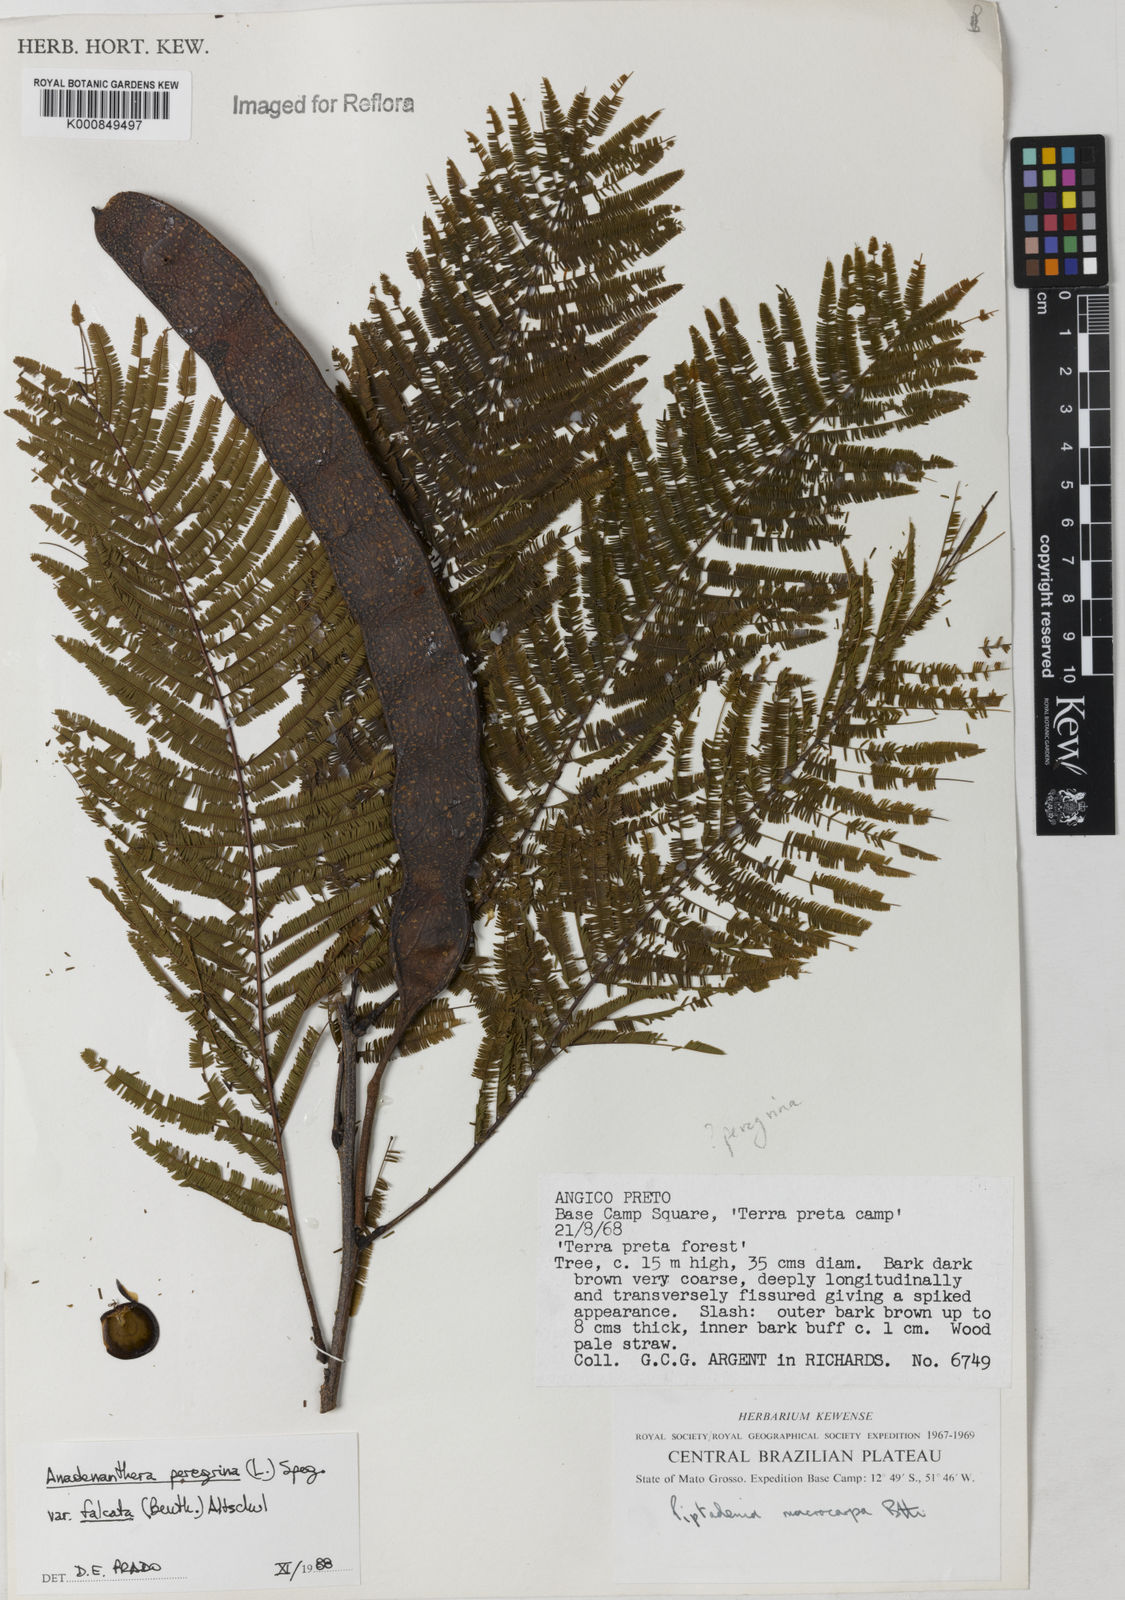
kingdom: Plantae
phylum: Tracheophyta
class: Magnoliopsida
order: Fabales
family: Fabaceae
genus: Anadenanthera
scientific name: Anadenanthera peregrina
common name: Cohoba
